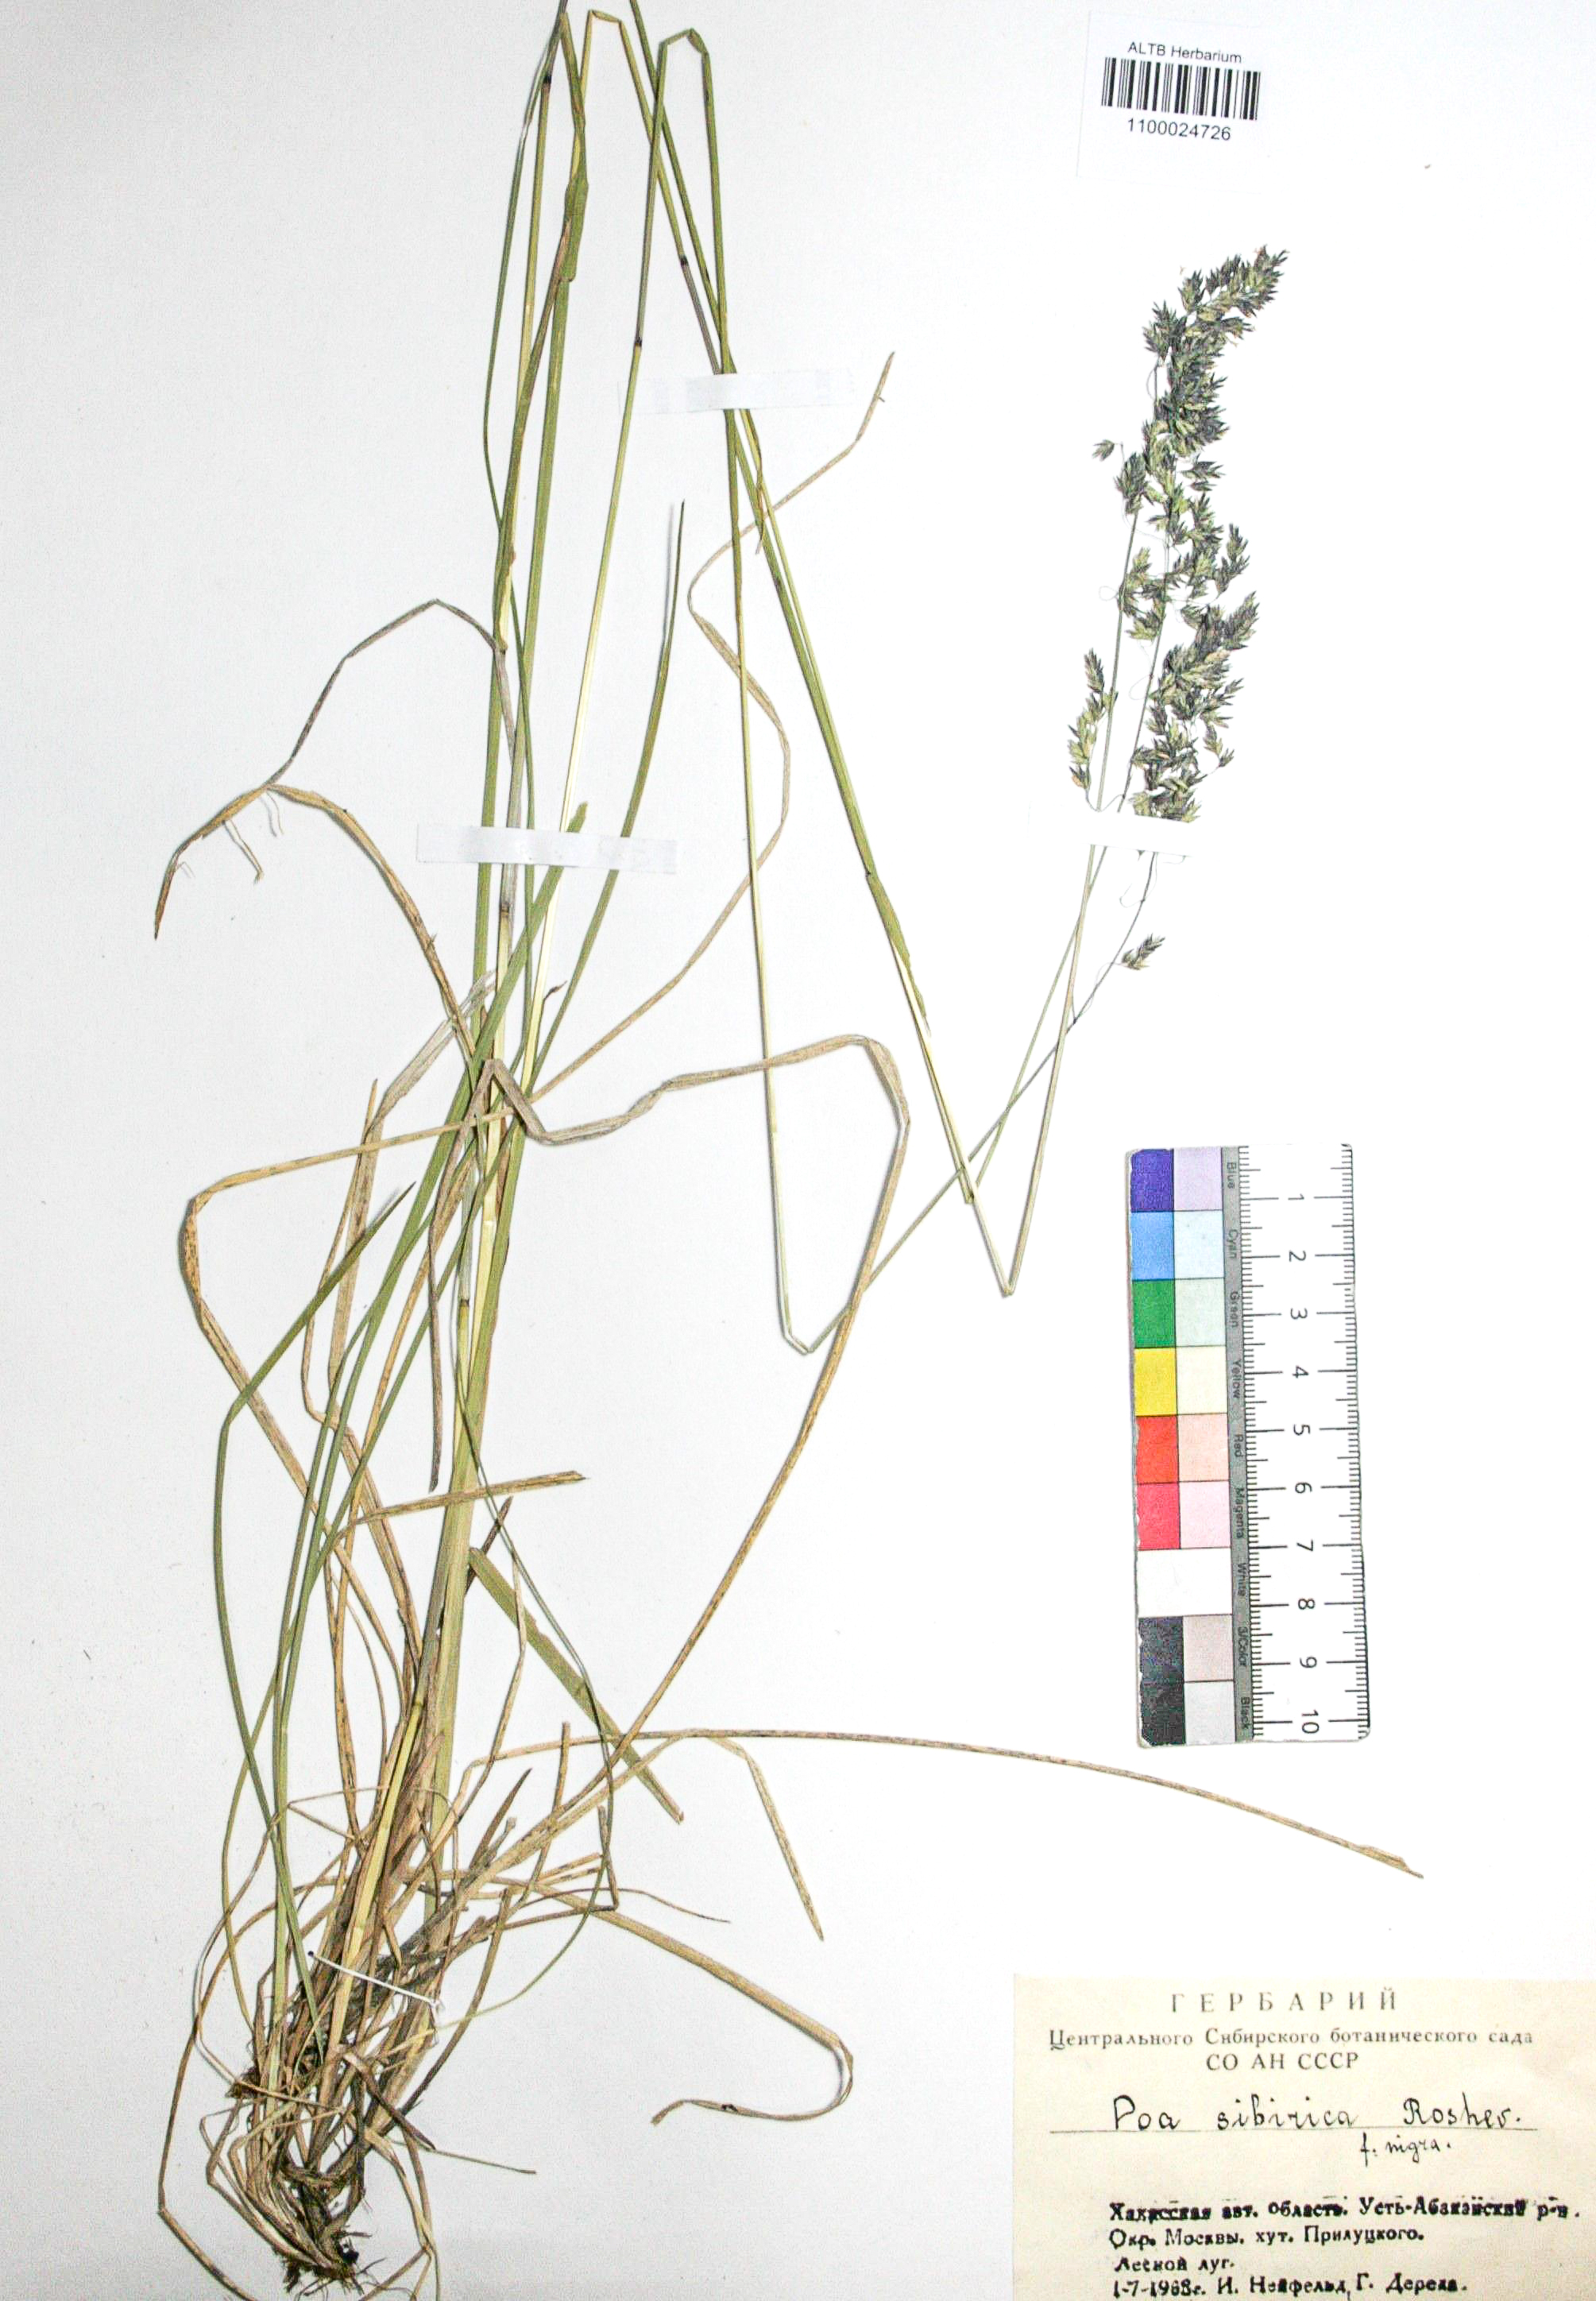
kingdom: Plantae
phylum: Tracheophyta
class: Liliopsida
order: Poales
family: Poaceae
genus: Poa
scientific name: Poa sibirica
